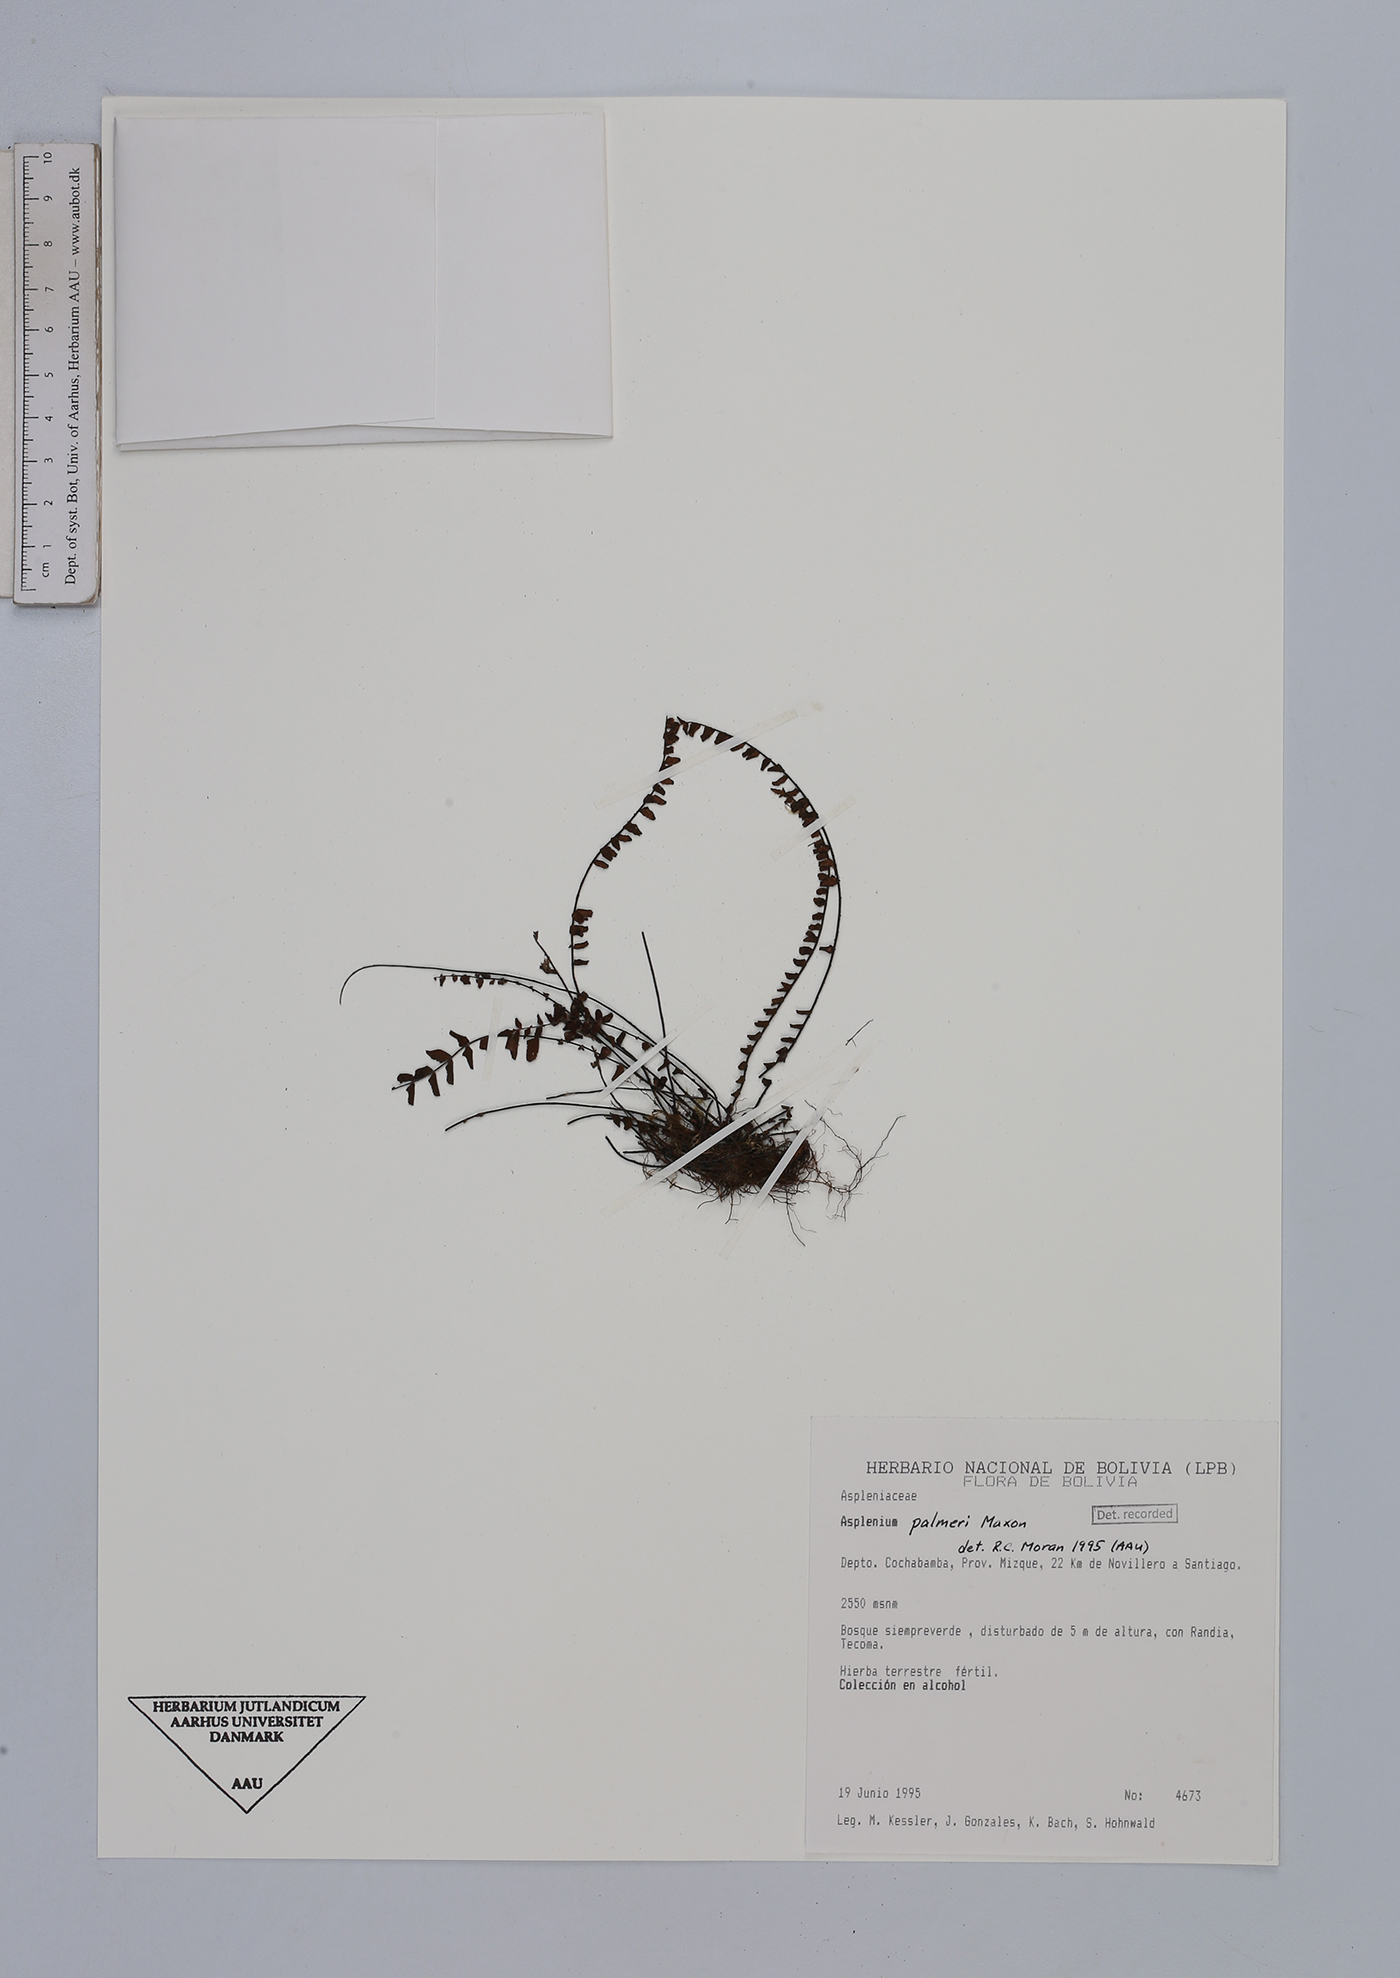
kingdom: Plantae
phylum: Tracheophyta
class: Polypodiopsida
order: Polypodiales
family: Aspleniaceae
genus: Asplenium
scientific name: Asplenium palmeri
